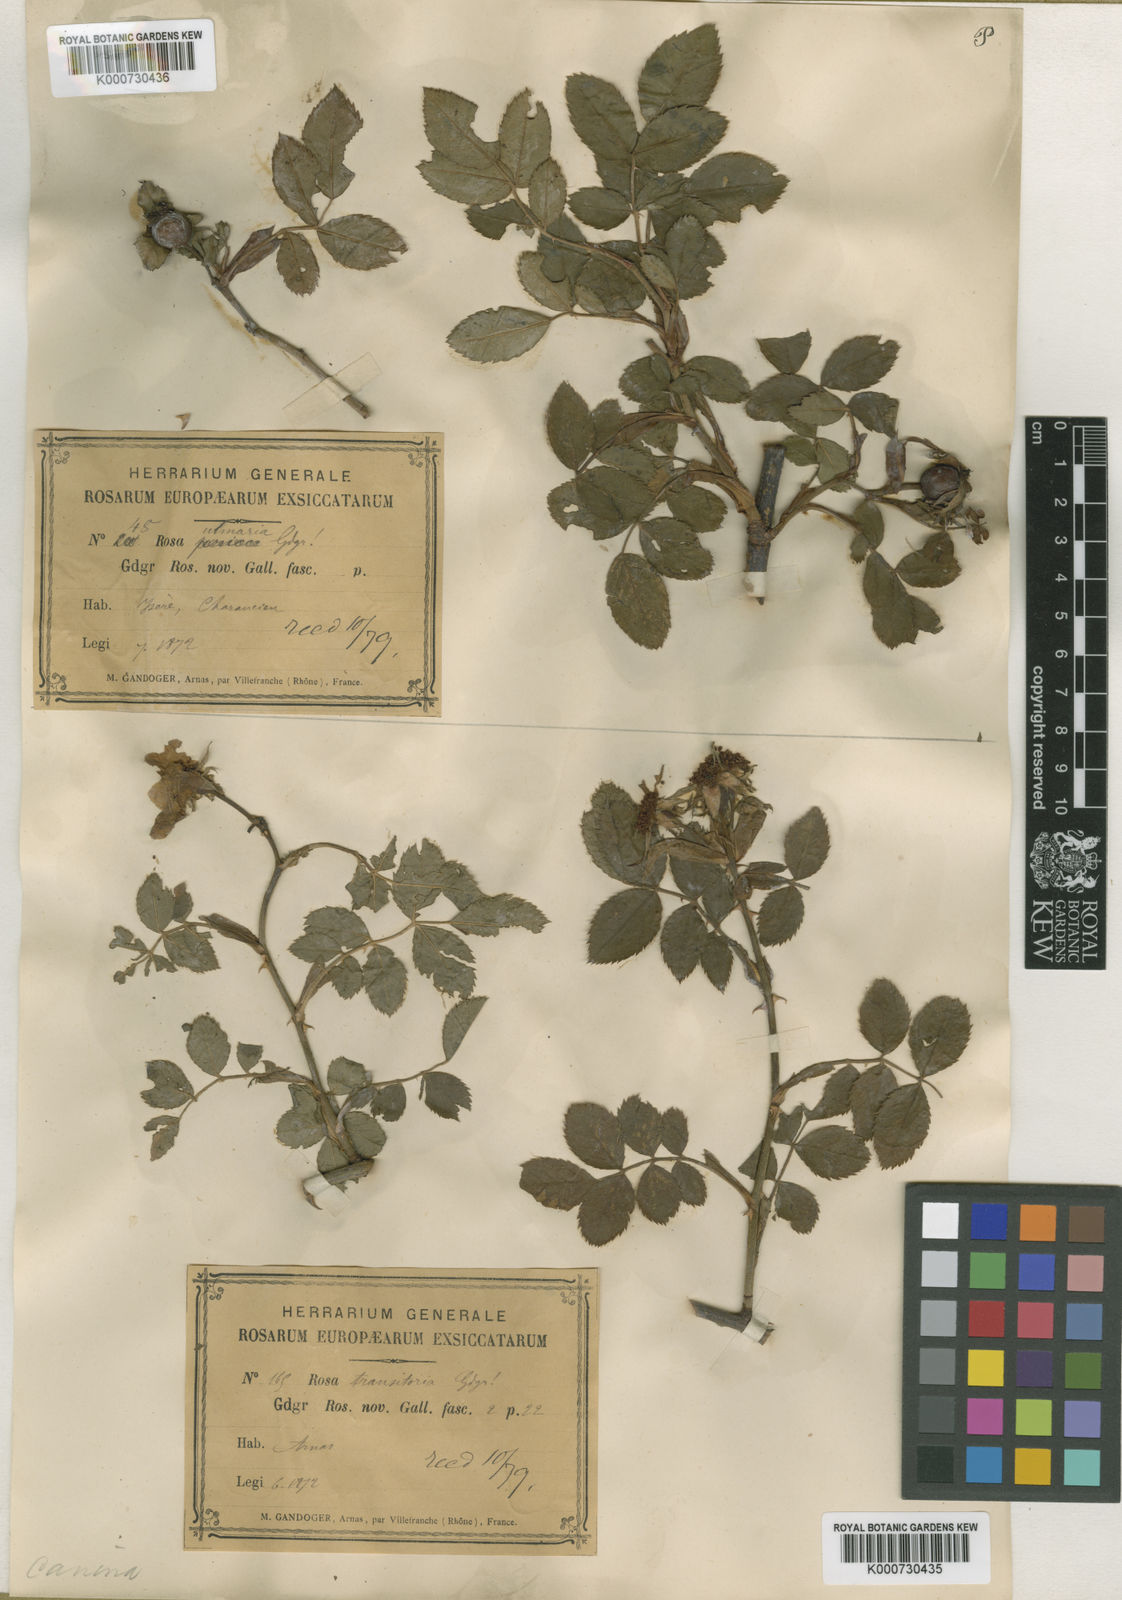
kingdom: Plantae
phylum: Tracheophyta
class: Magnoliopsida
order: Rosales
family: Rosaceae
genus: Rosa
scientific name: Rosa canina
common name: Dog rose
